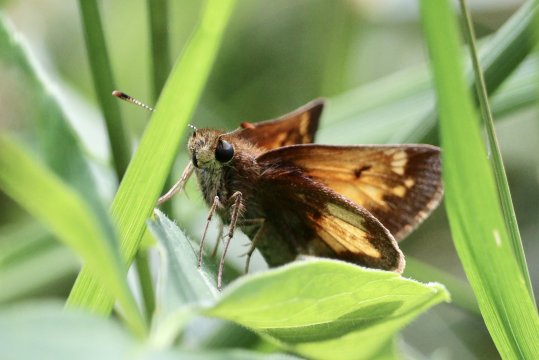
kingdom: Animalia
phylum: Arthropoda
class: Insecta
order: Lepidoptera
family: Hesperiidae
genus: Lon
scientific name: Lon hobomok
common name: Hobomok Skipper
